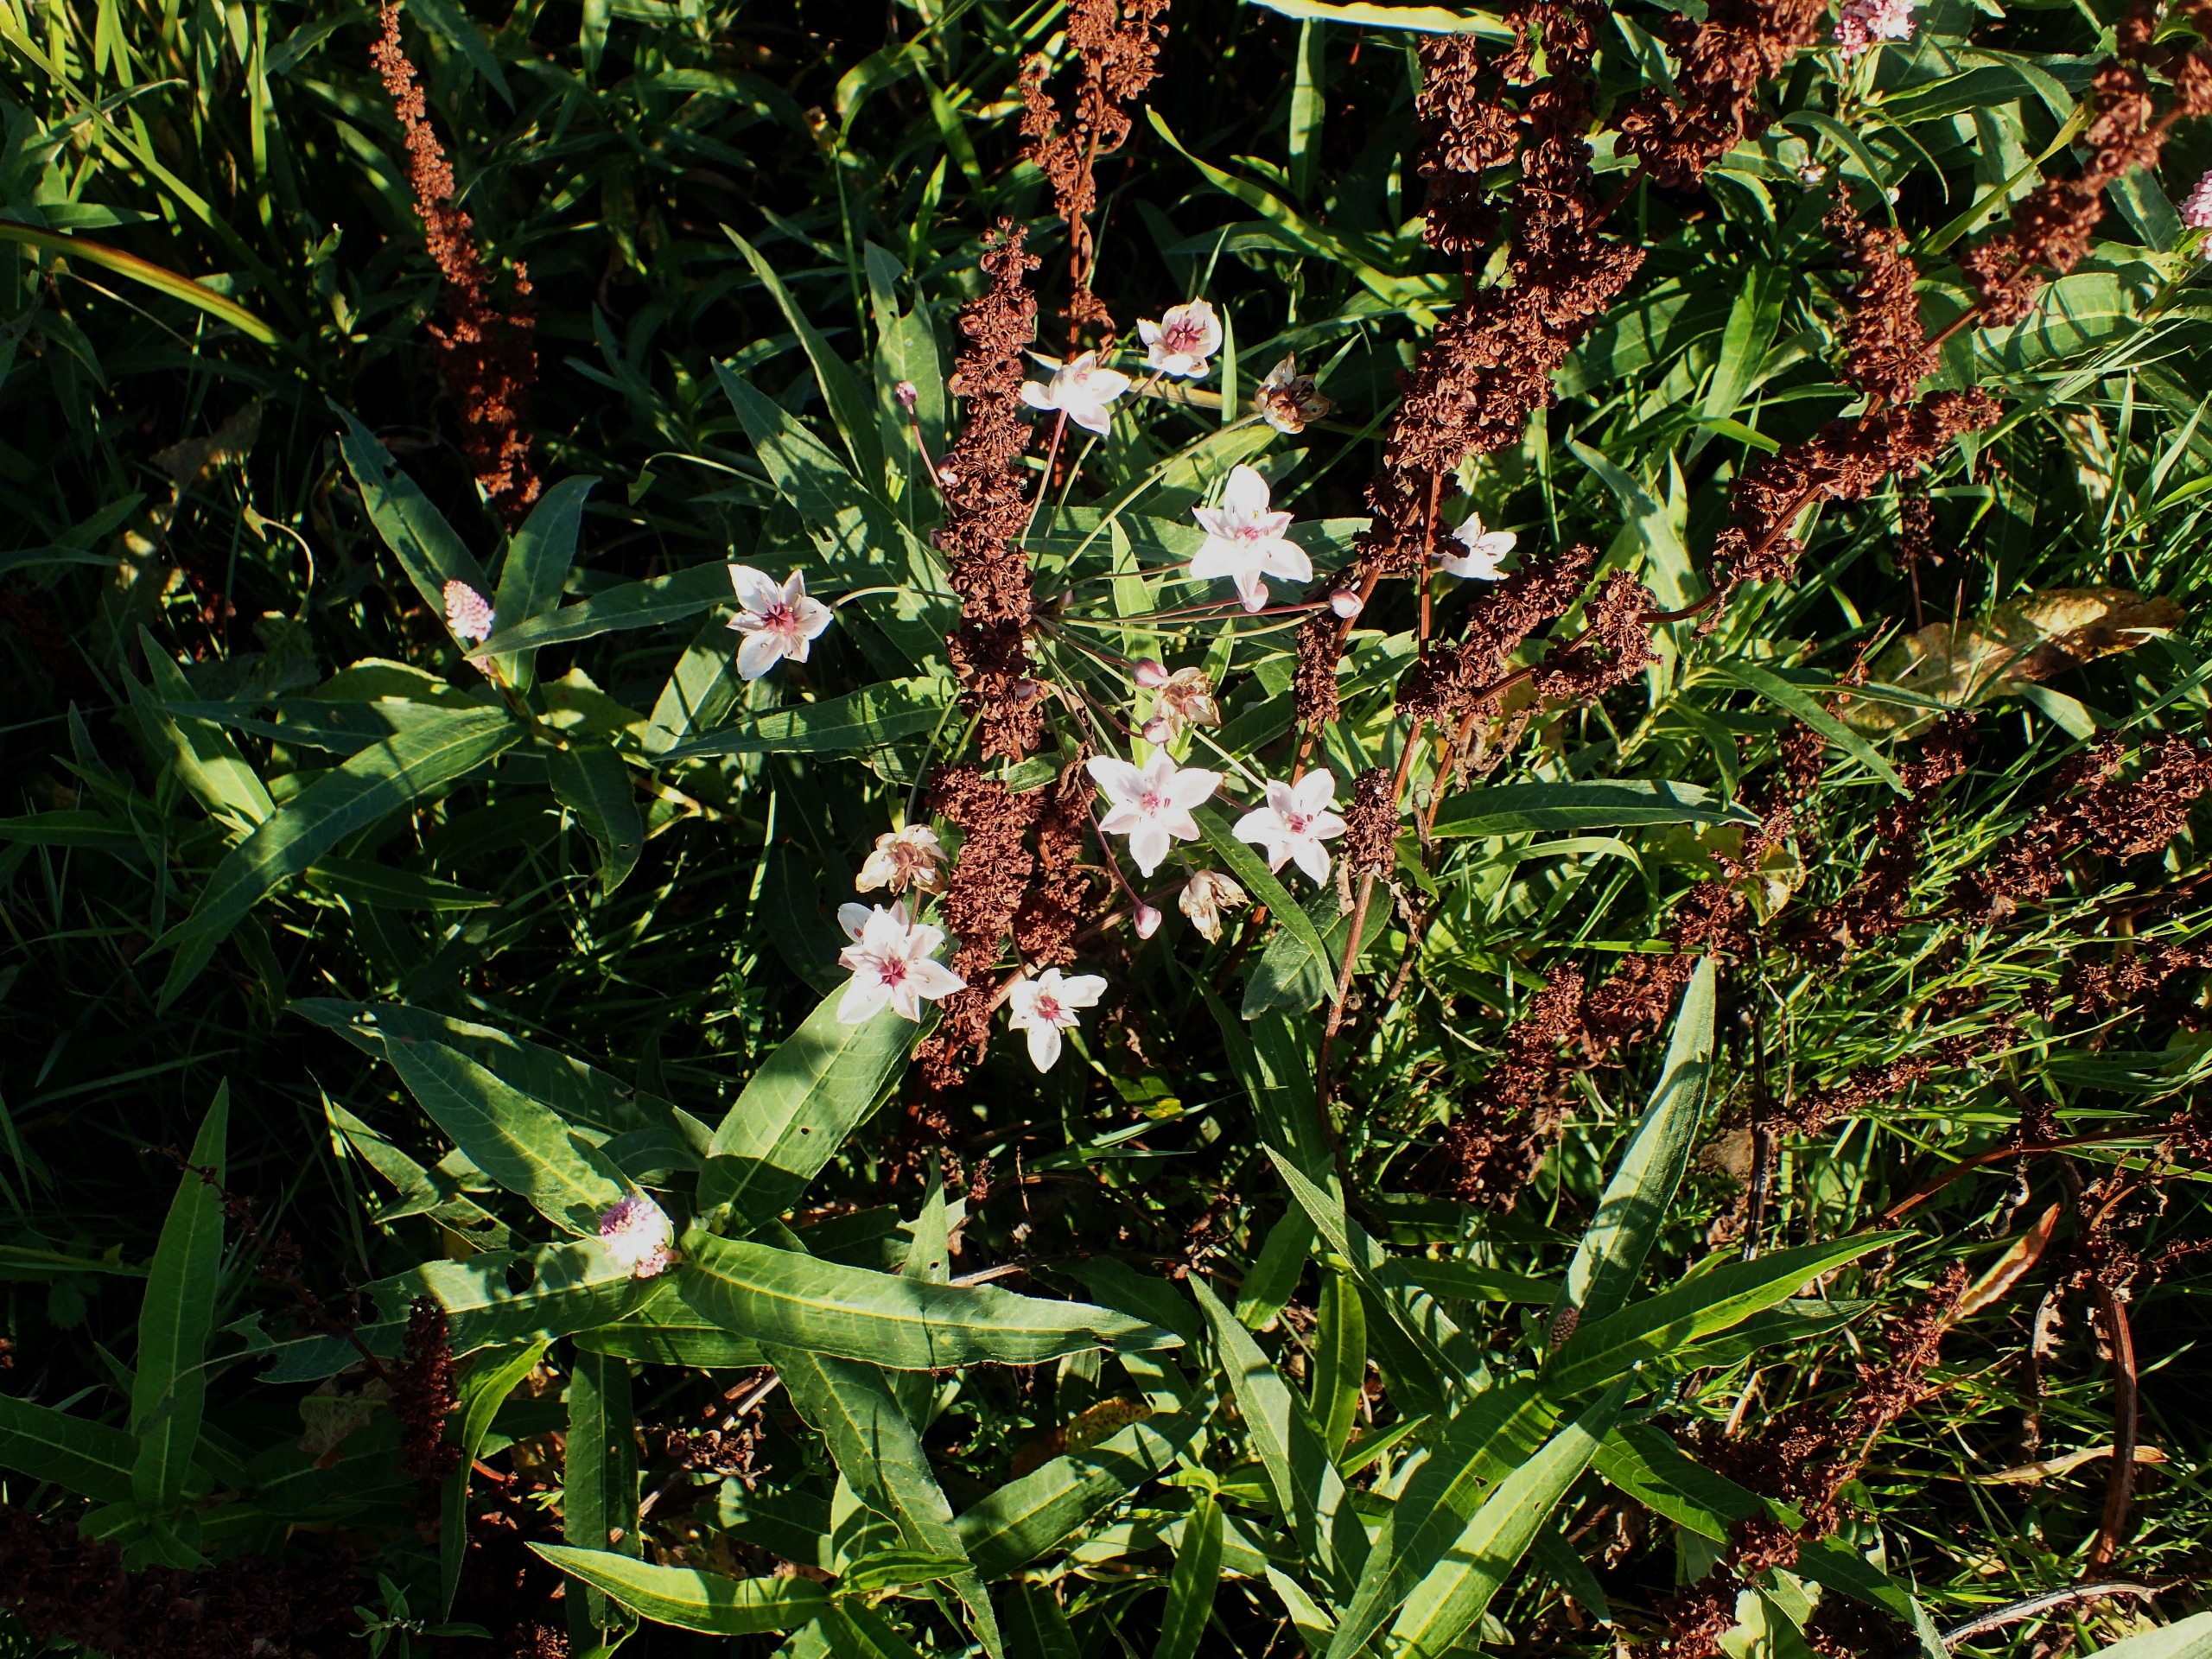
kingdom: Plantae
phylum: Tracheophyta
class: Liliopsida
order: Alismatales
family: Butomaceae
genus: Butomus
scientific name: Butomus umbellatus
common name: Brudelys
